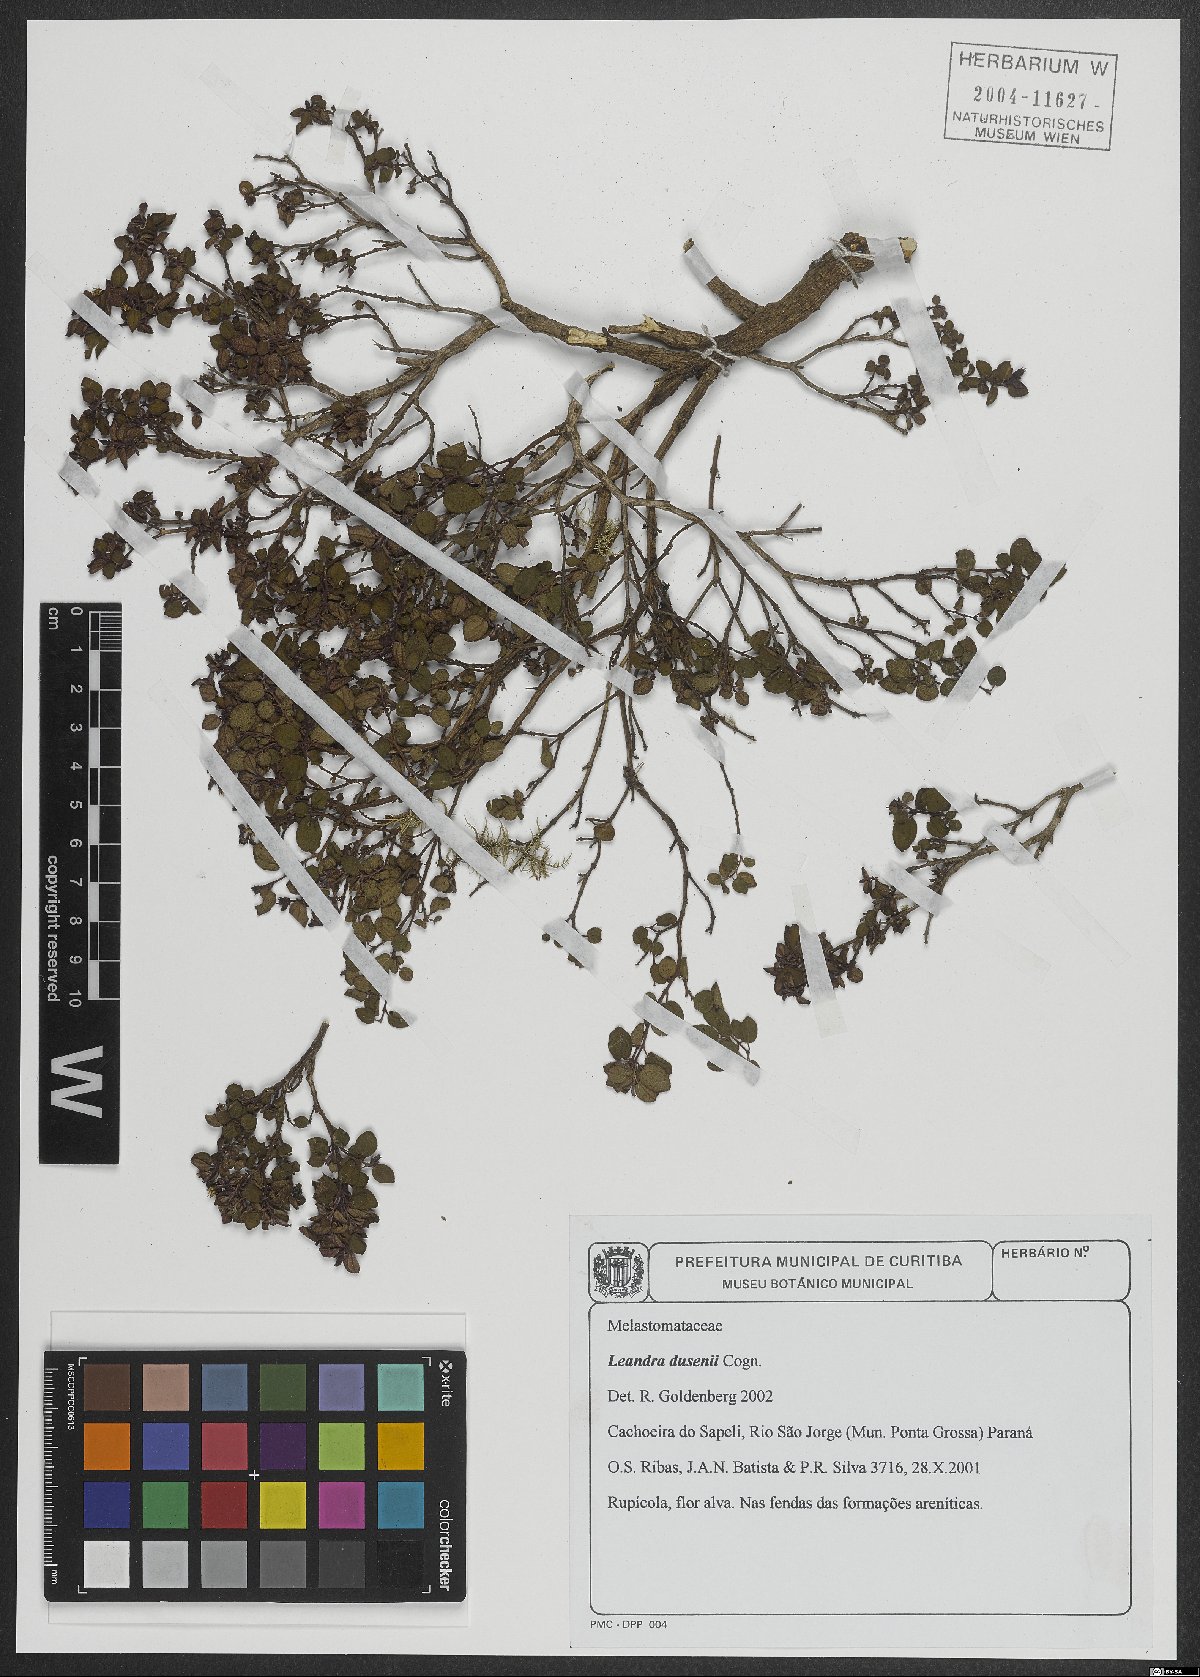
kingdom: Plantae
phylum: Tracheophyta
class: Magnoliopsida
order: Myrtales
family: Melastomataceae
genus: Miconia
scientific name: Miconia dusenii
